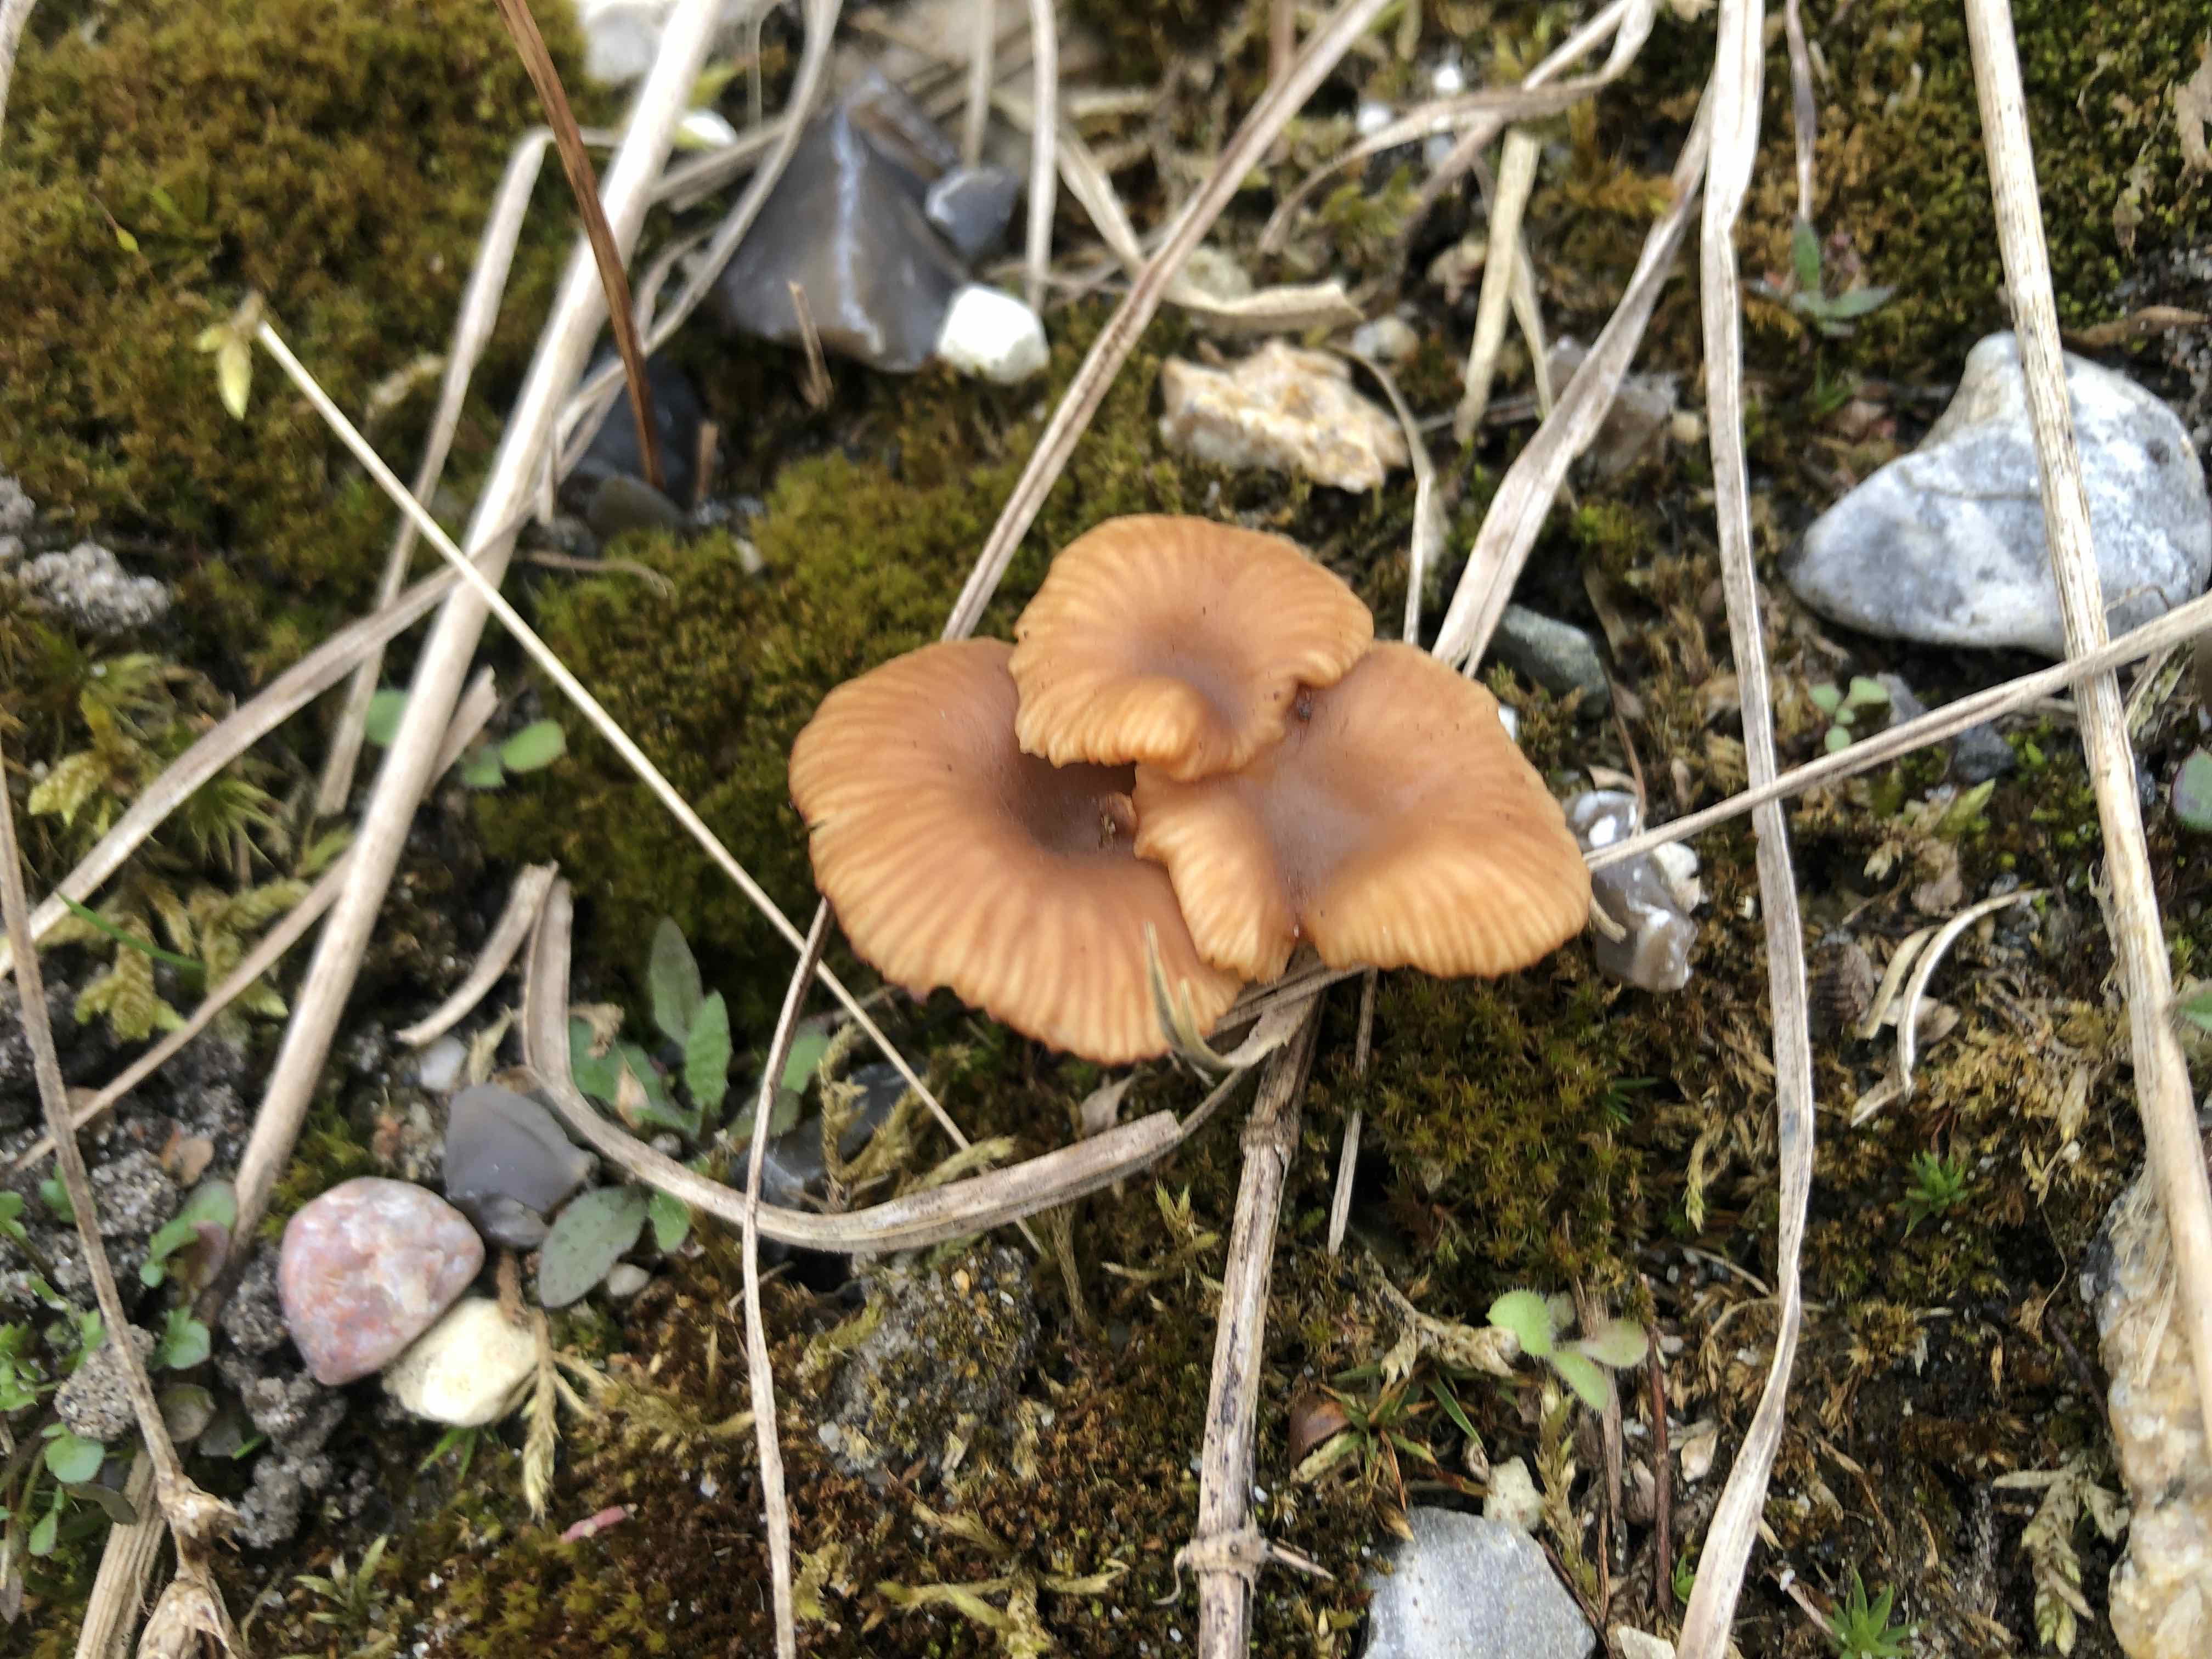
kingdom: Fungi
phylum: Basidiomycota
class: Agaricomycetes
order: Agaricales
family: Tricholomataceae
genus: Omphalina
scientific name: Omphalina pyxidata
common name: rødbrun navlehat
